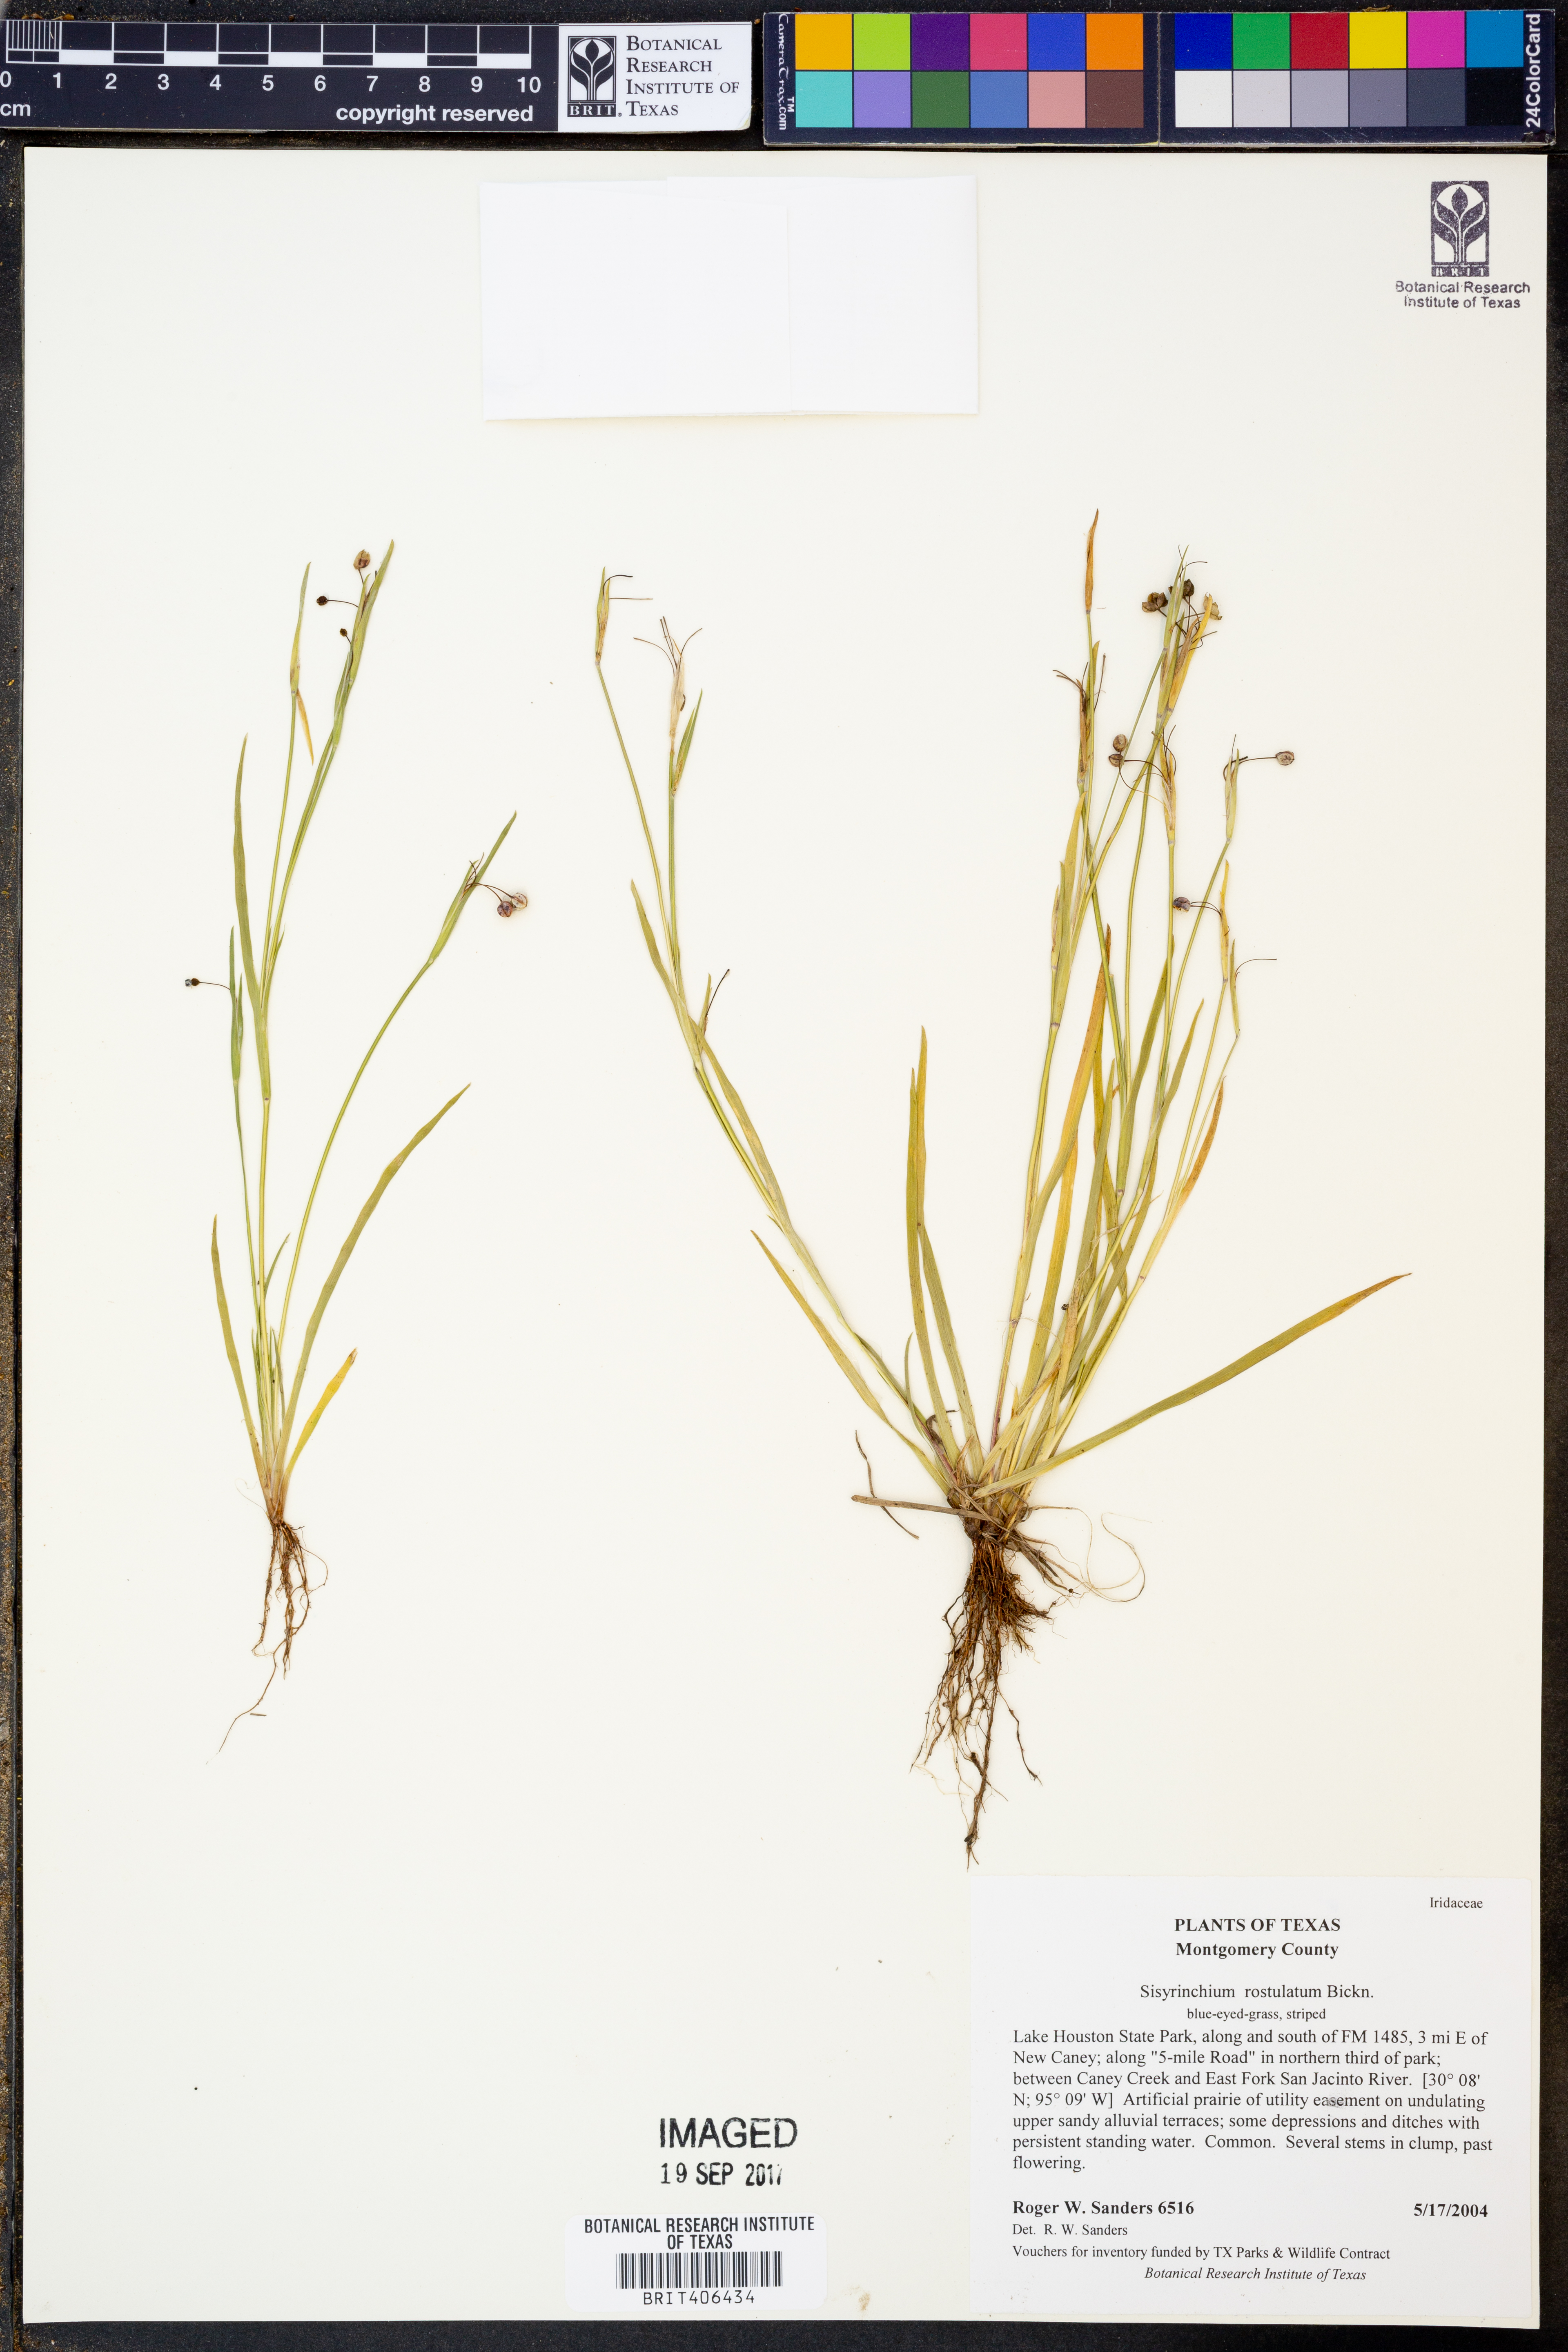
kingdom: Plantae
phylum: Tracheophyta
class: Liliopsida
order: Asparagales
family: Iridaceae
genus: Sisyrinchium
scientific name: Sisyrinchium rosulatum
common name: Annual blue-eyed grass
